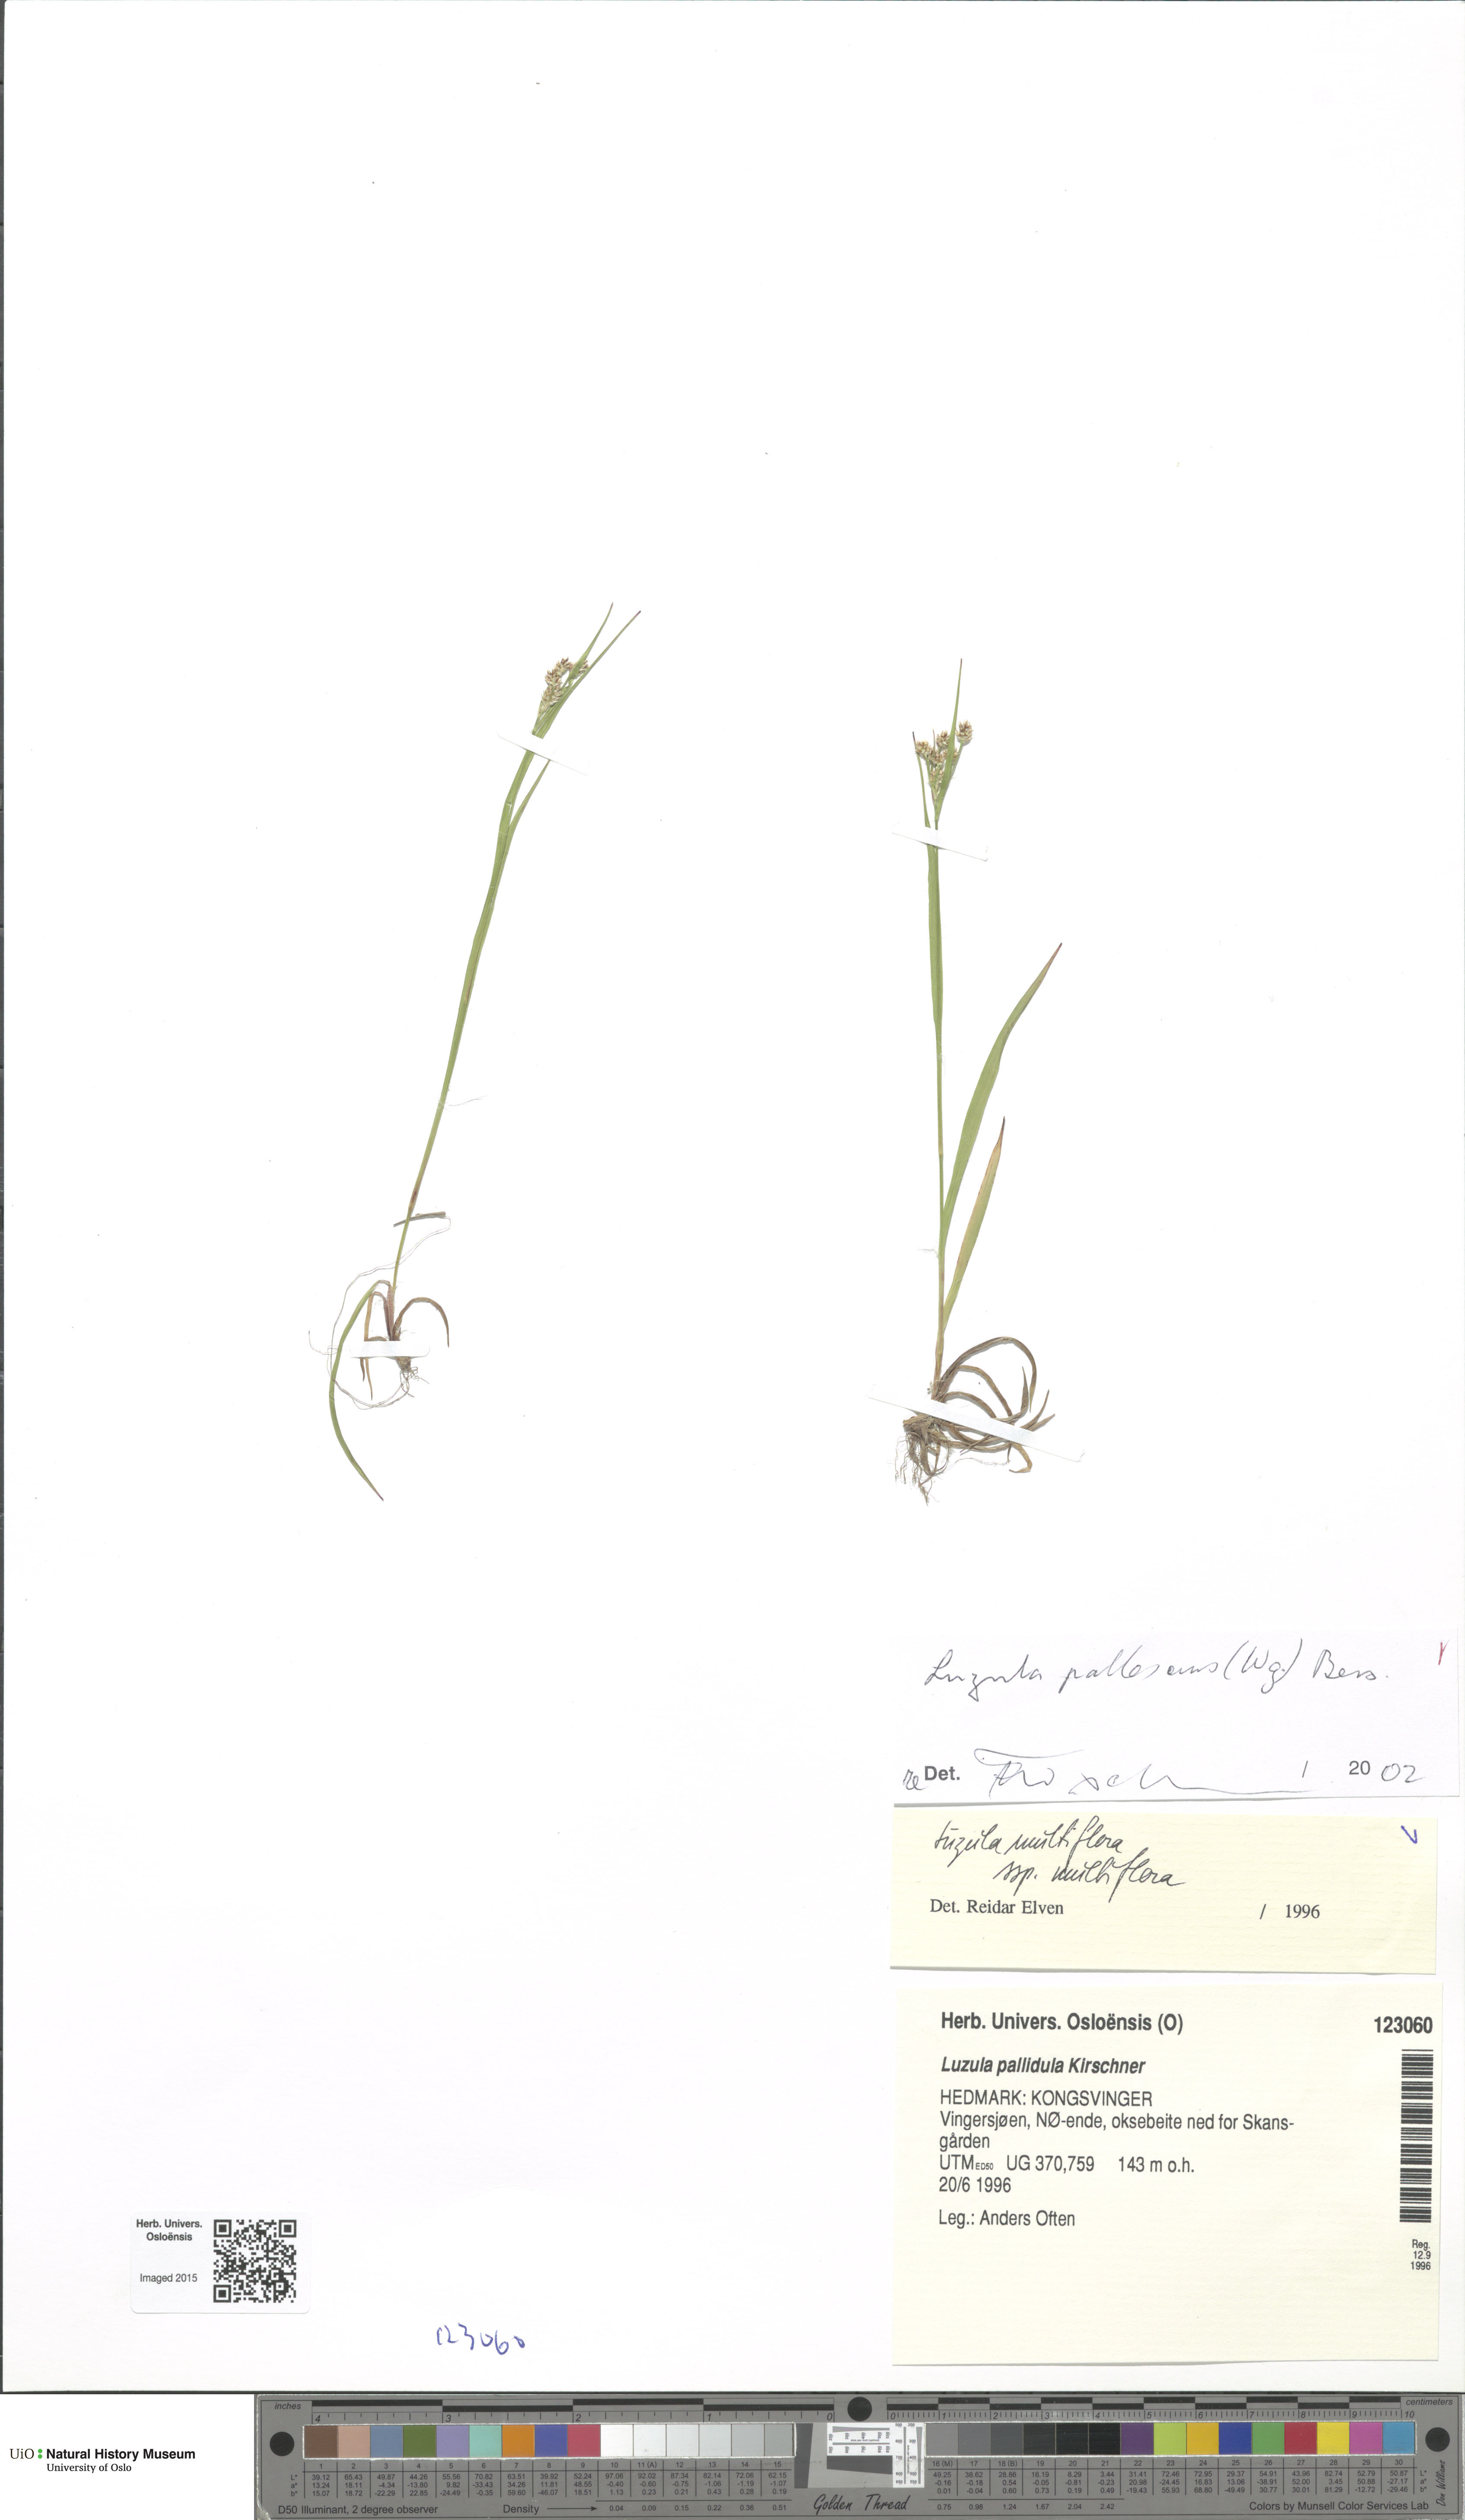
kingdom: Plantae
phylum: Tracheophyta
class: Liliopsida
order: Poales
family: Juncaceae
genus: Luzula
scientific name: Luzula pallescens
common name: Fen wood-rush
